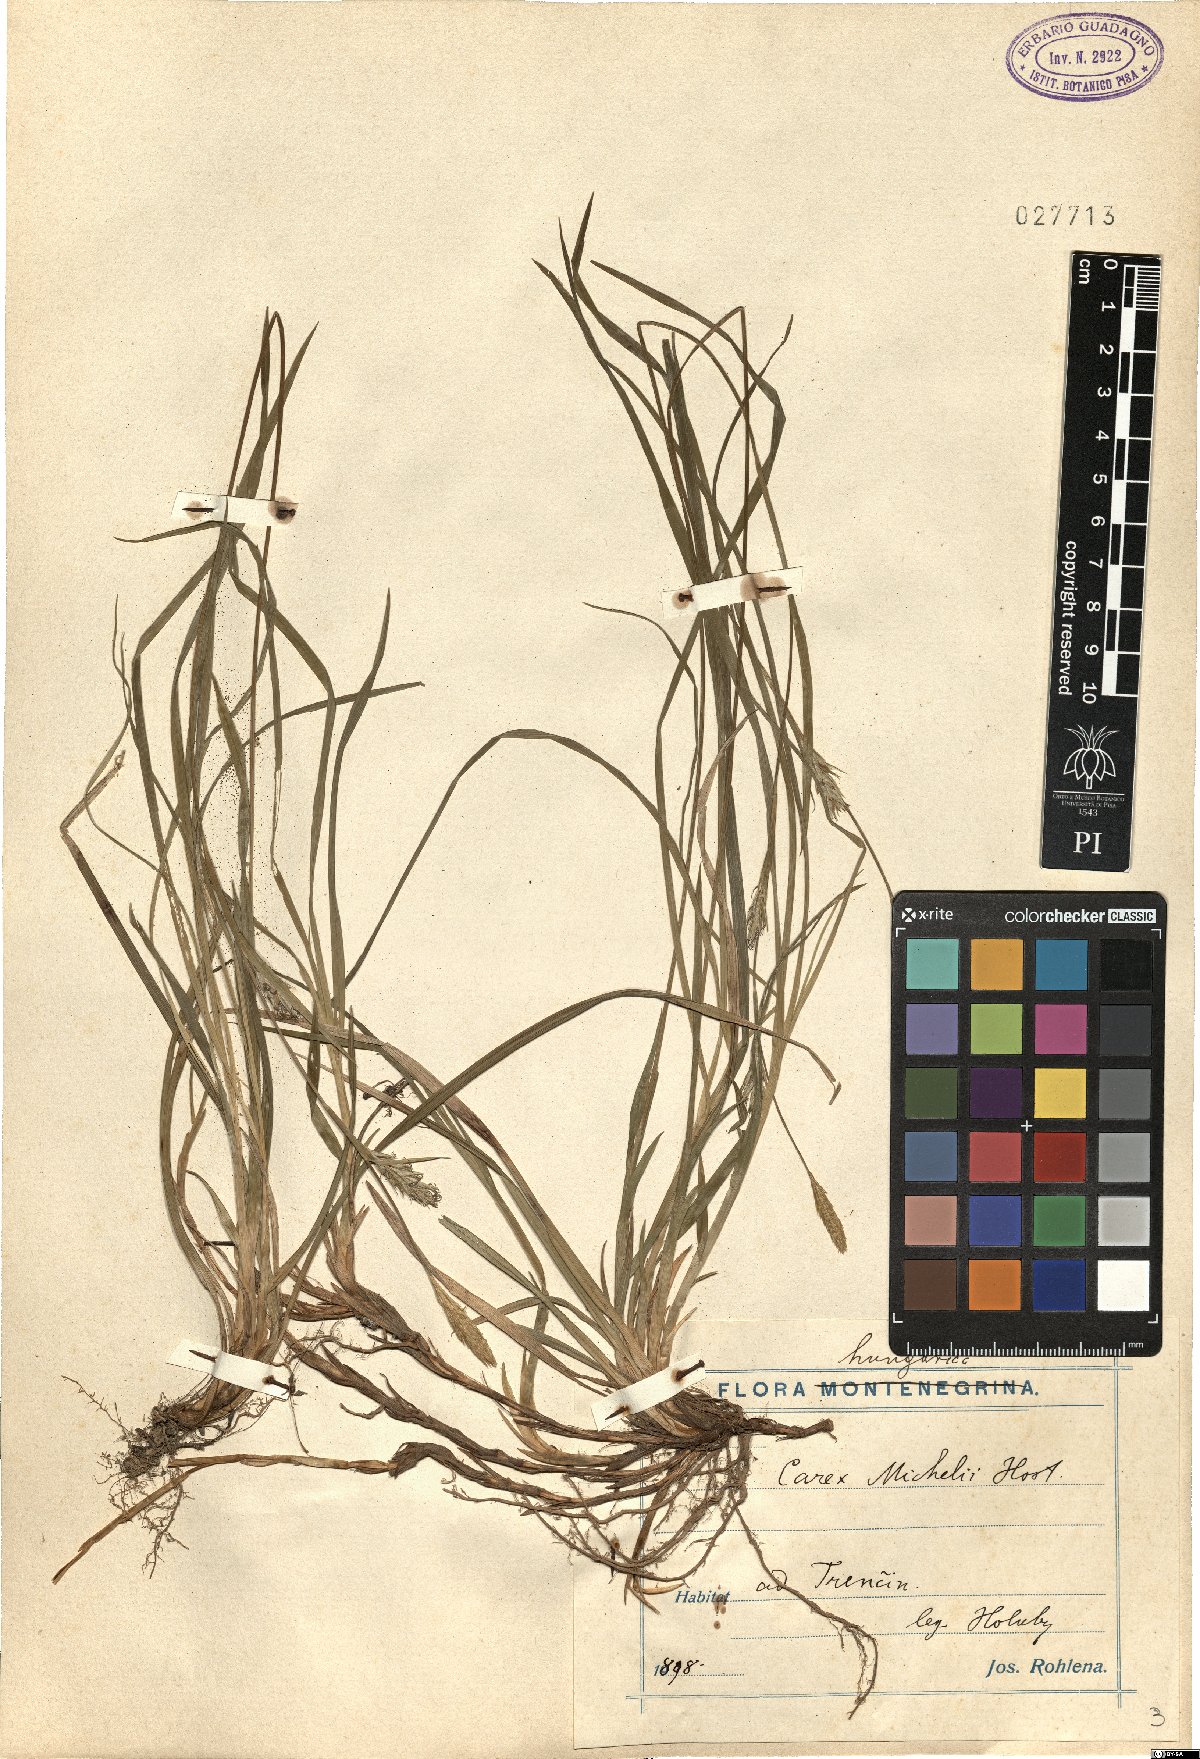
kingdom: Plantae
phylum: Tracheophyta
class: Liliopsida
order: Poales
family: Cyperaceae
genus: Carex
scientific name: Carex michelii
